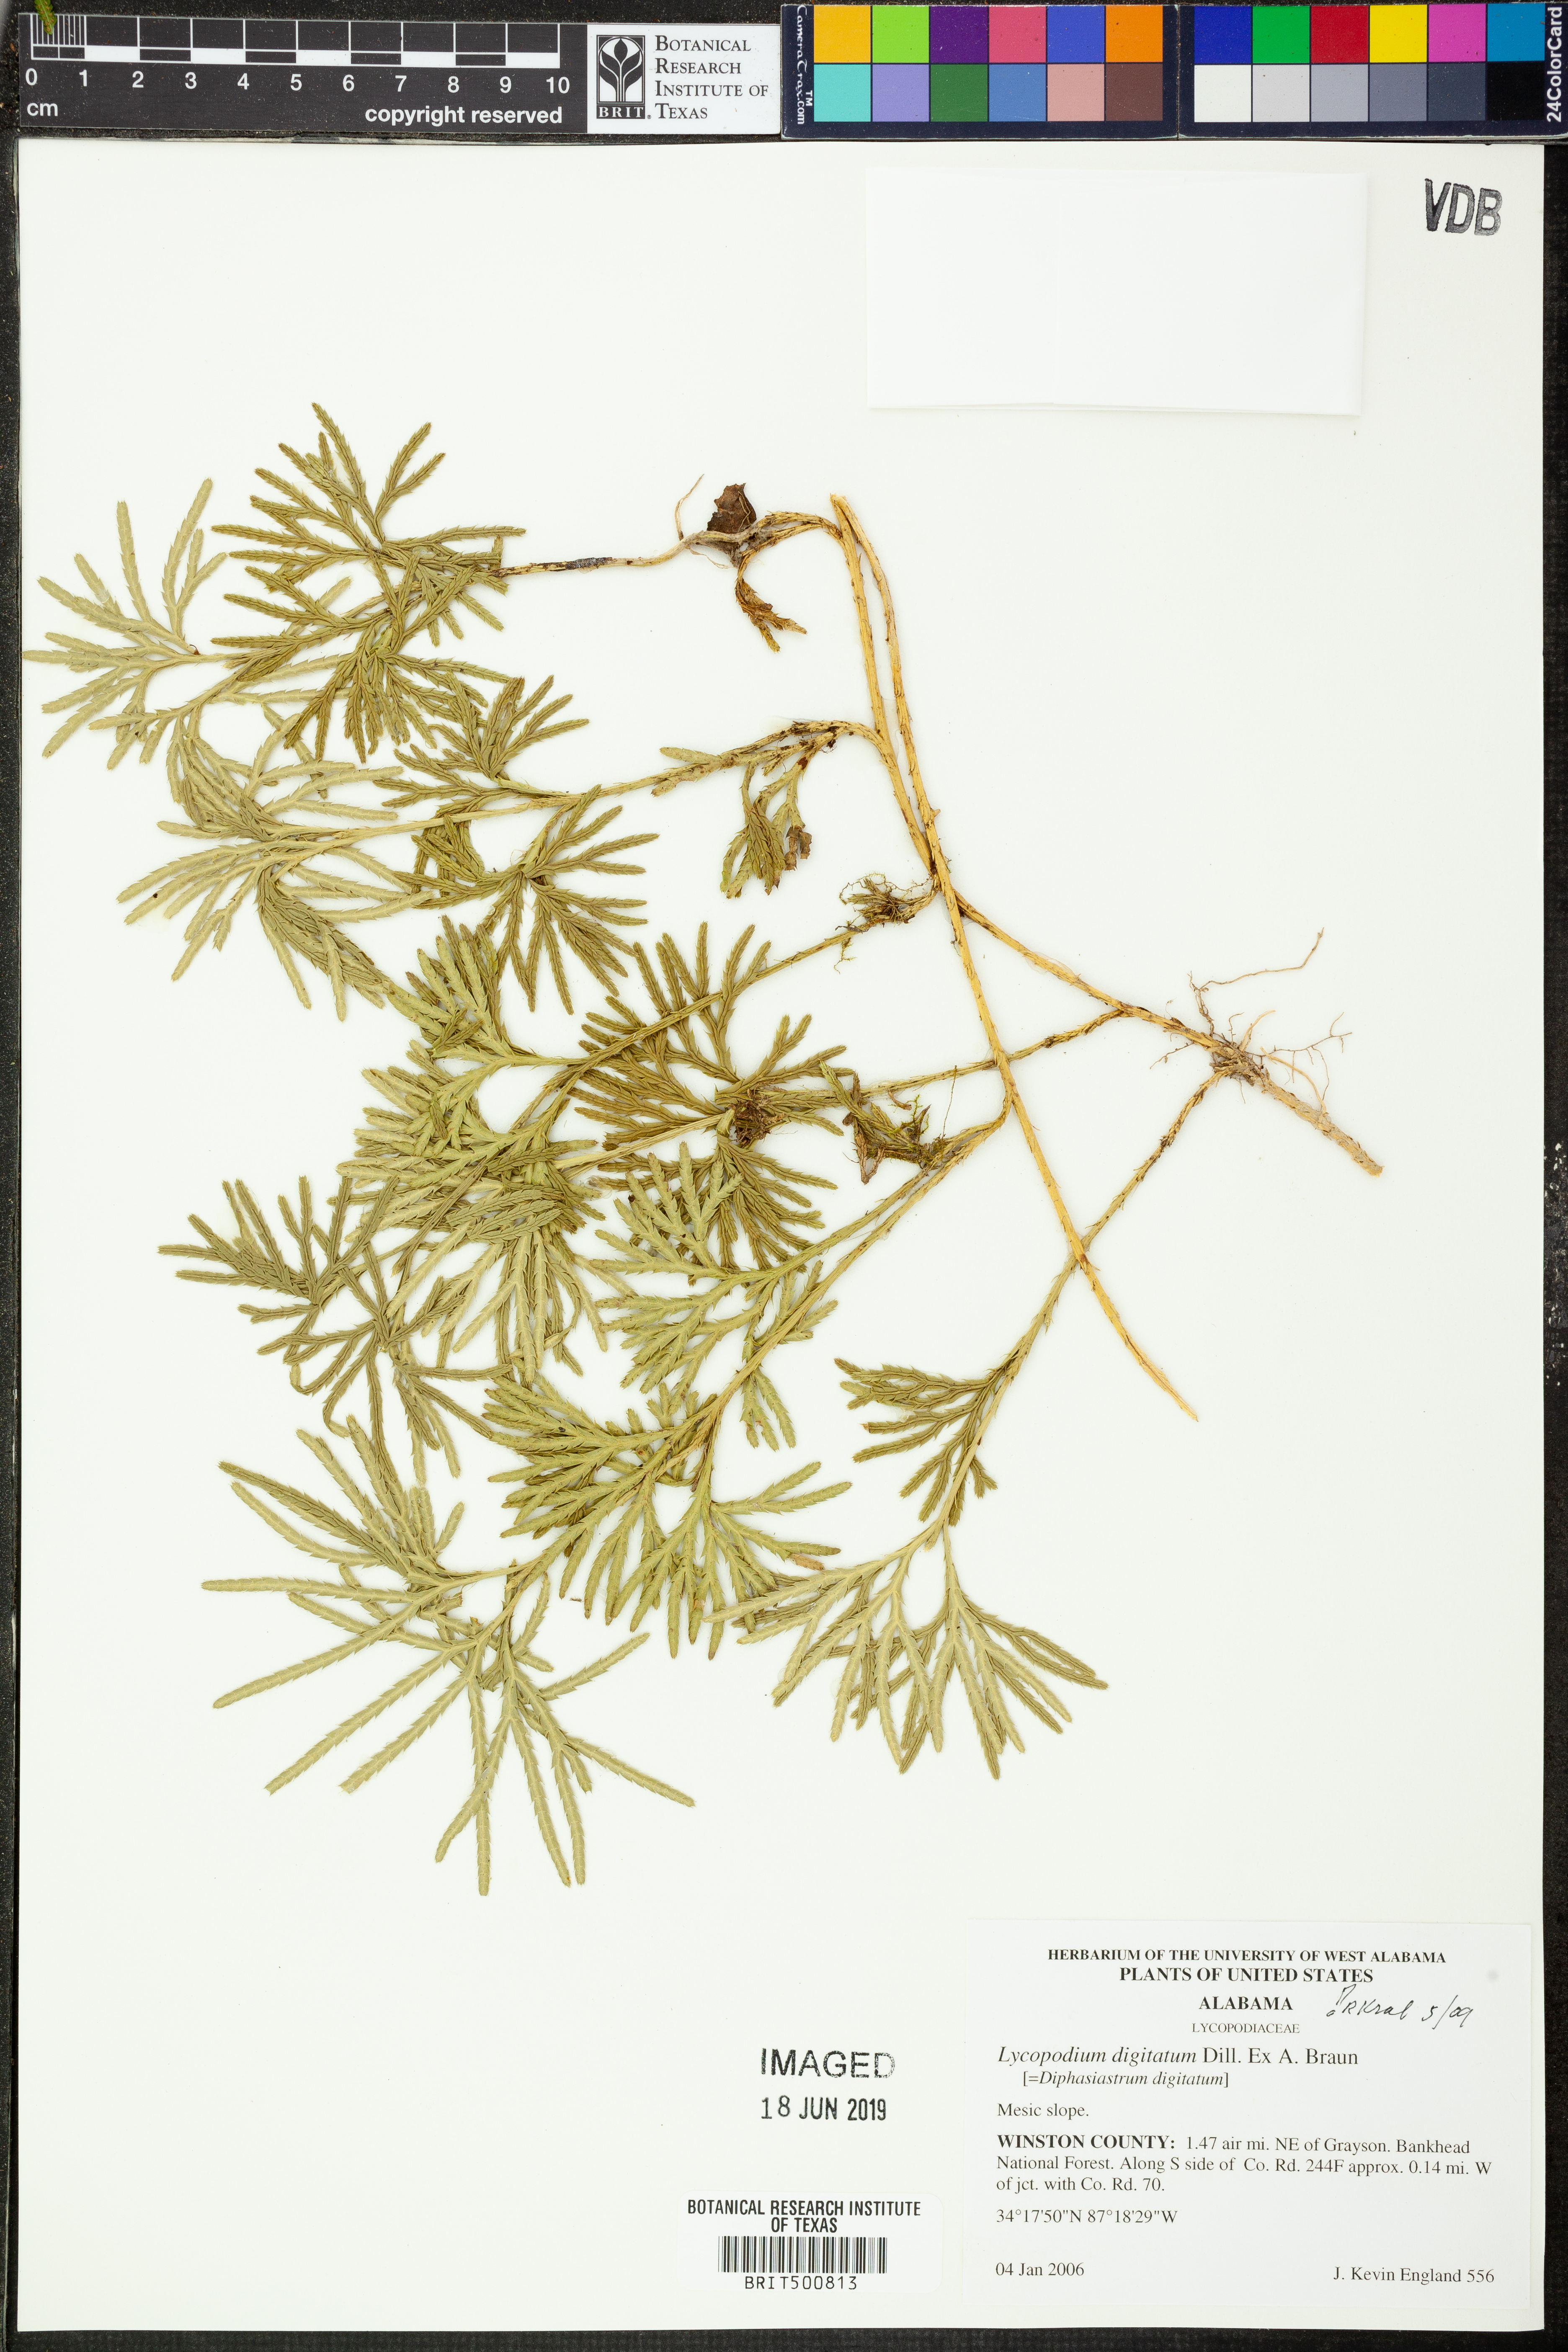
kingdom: Plantae
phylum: Tracheophyta
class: Lycopodiopsida
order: Lycopodiales
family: Lycopodiaceae
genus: Diphasiastrum
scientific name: Diphasiastrum digitatum
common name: Southern running-pine
